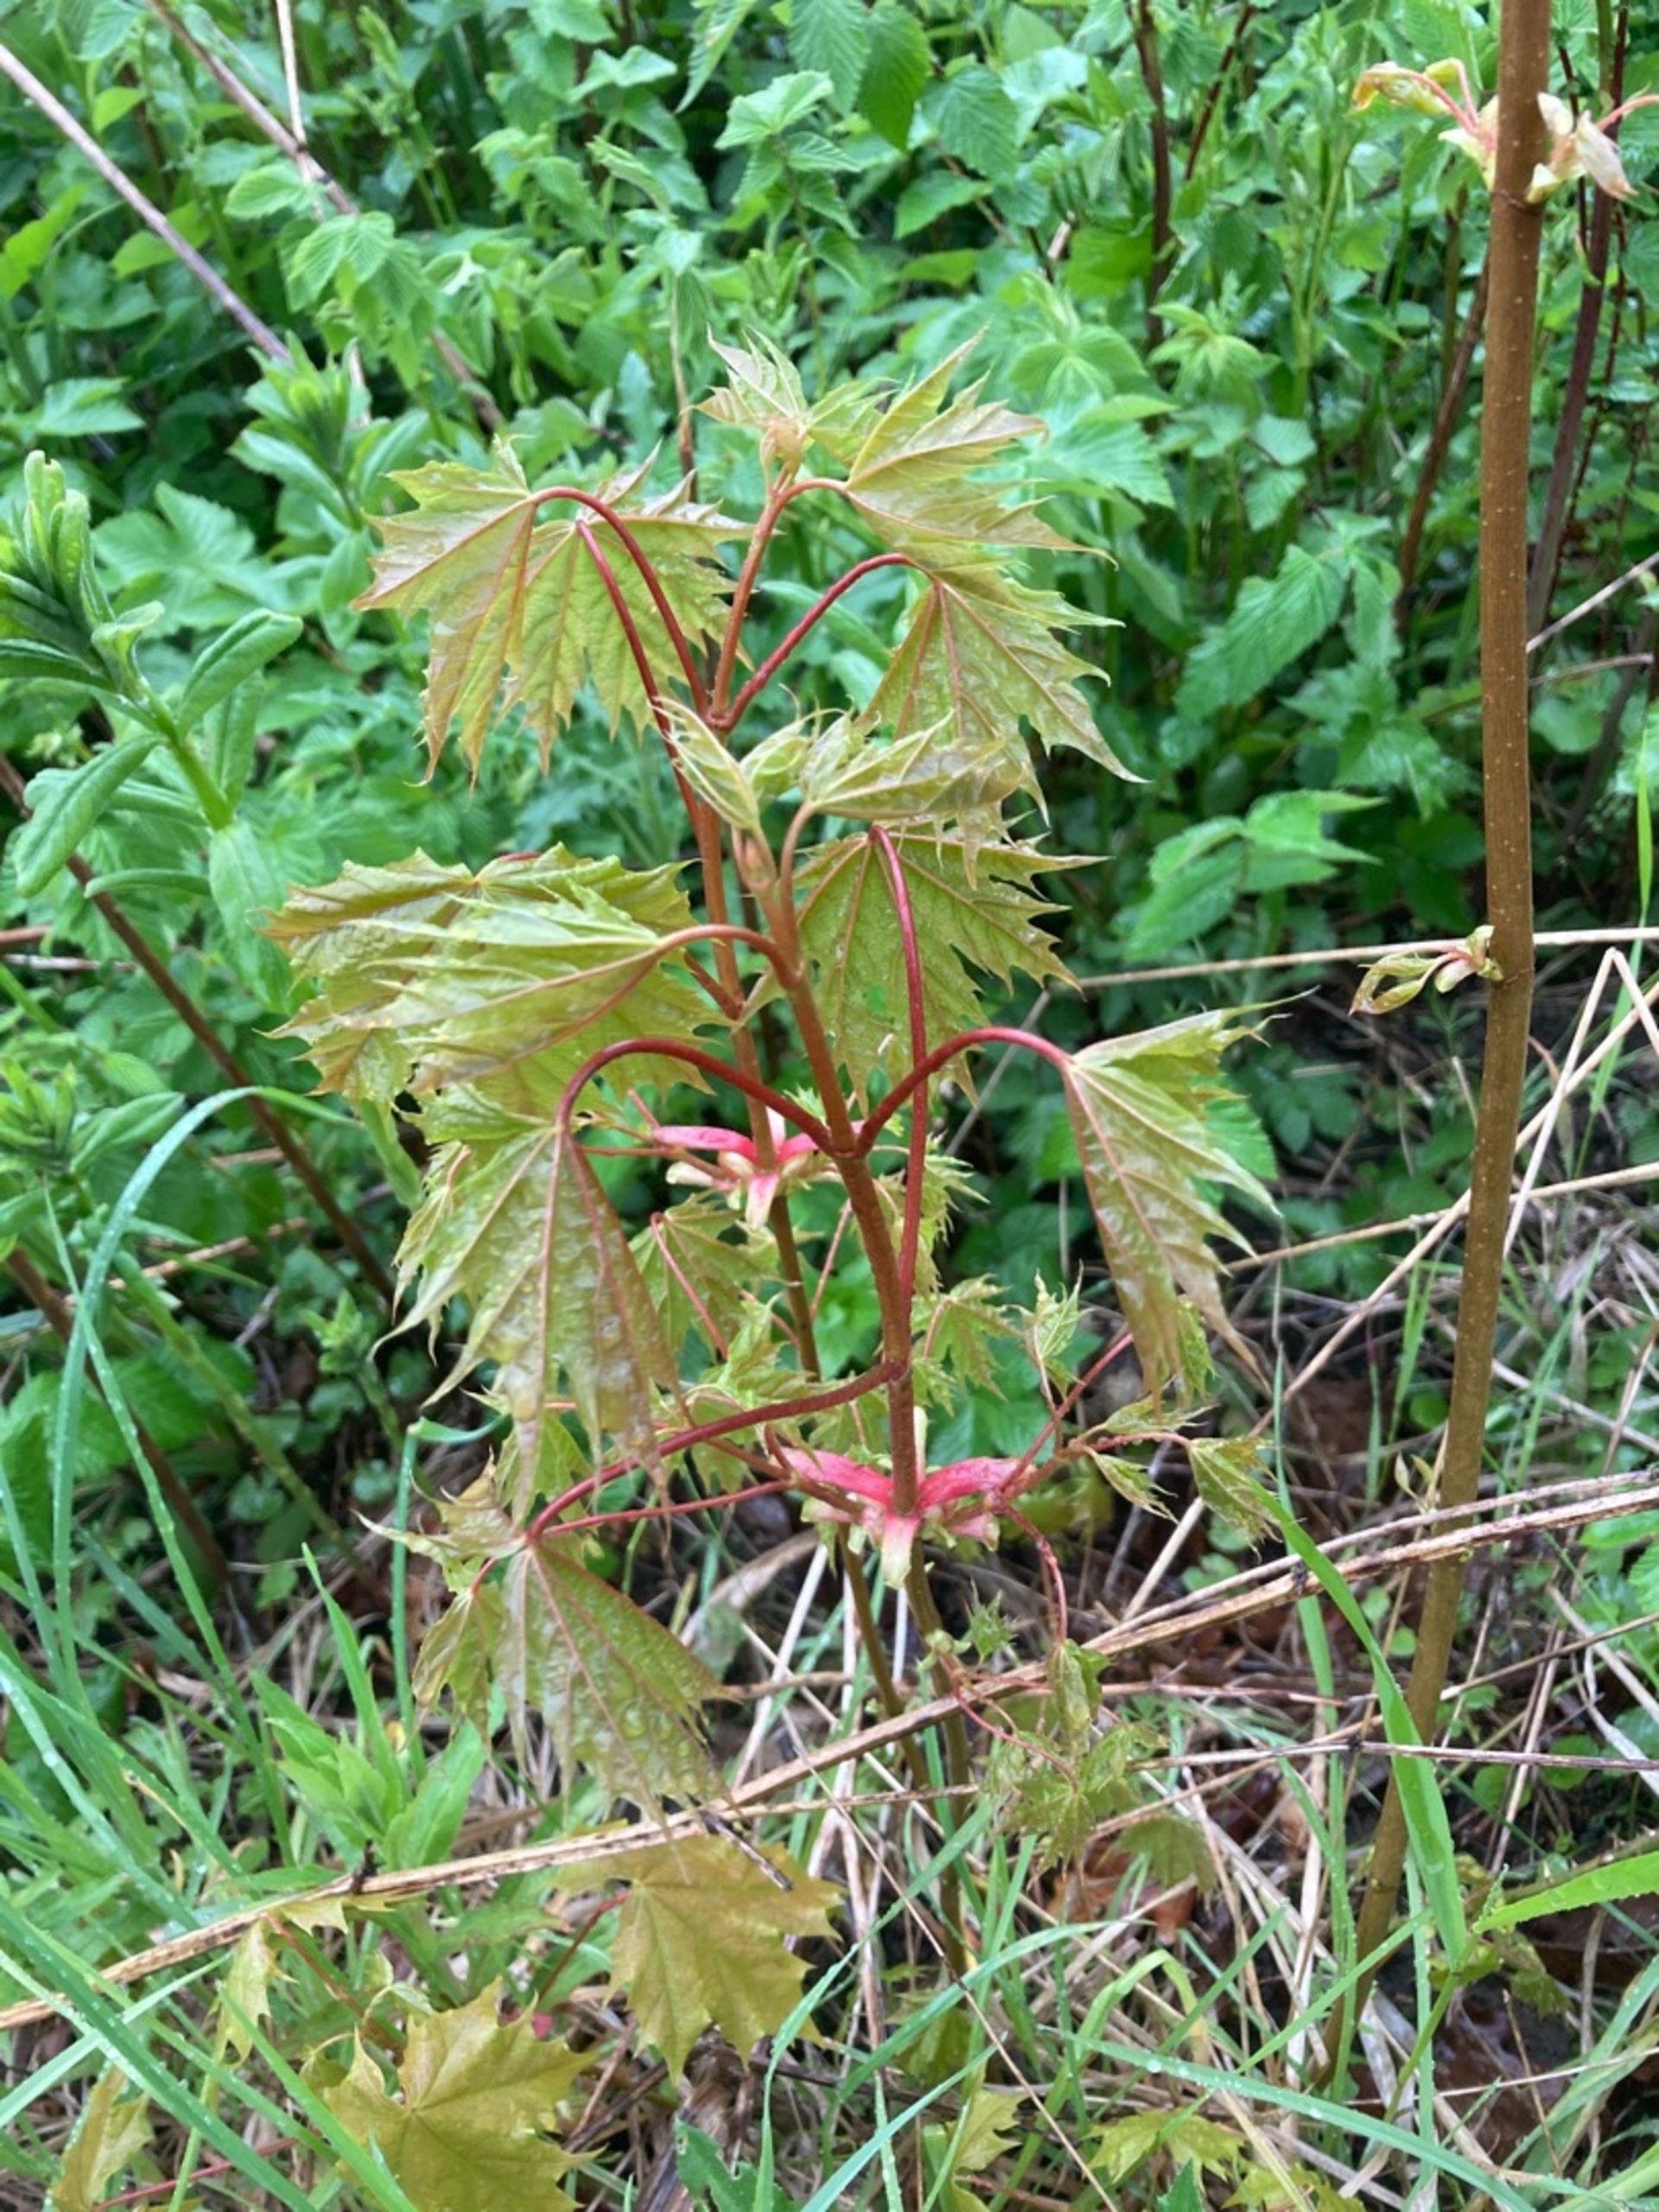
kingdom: Plantae
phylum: Tracheophyta
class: Magnoliopsida
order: Sapindales
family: Sapindaceae
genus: Acer
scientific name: Acer platanoides
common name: Spids-løn
